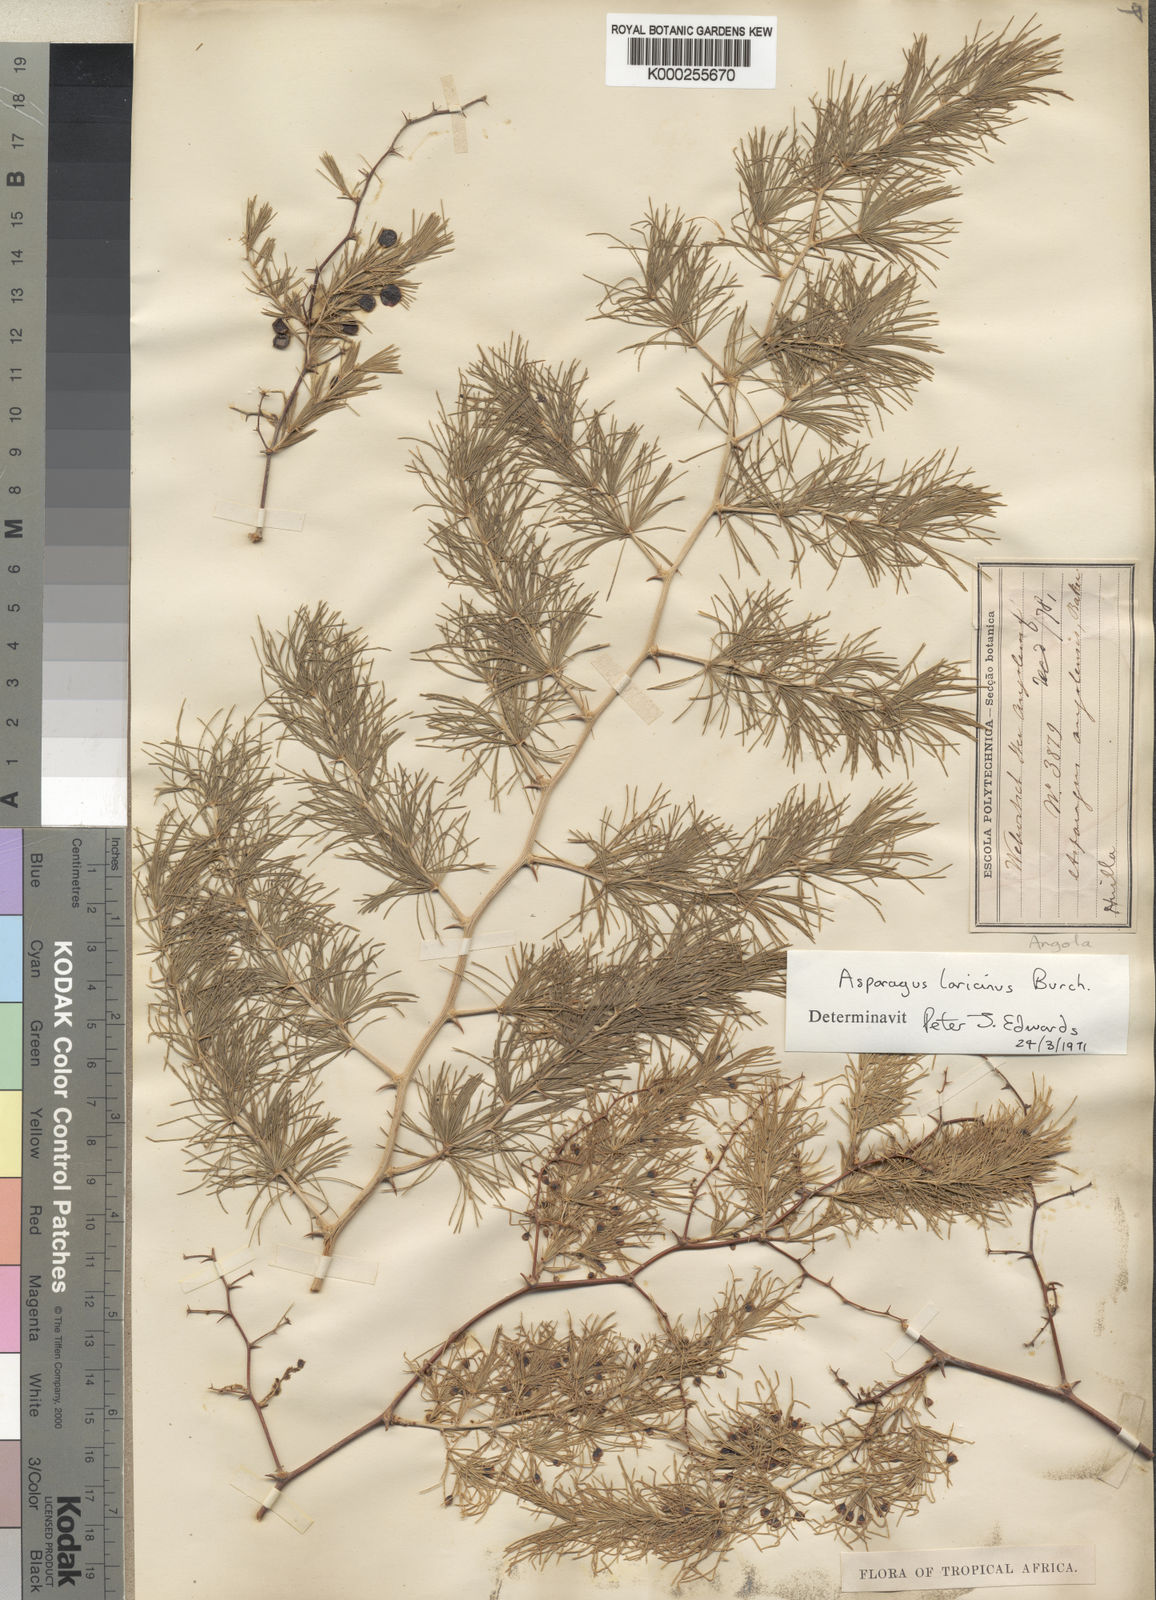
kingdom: Plantae
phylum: Tracheophyta
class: Liliopsida
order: Asparagales
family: Asparagaceae
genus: Asparagus
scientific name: Asparagus laricinus
